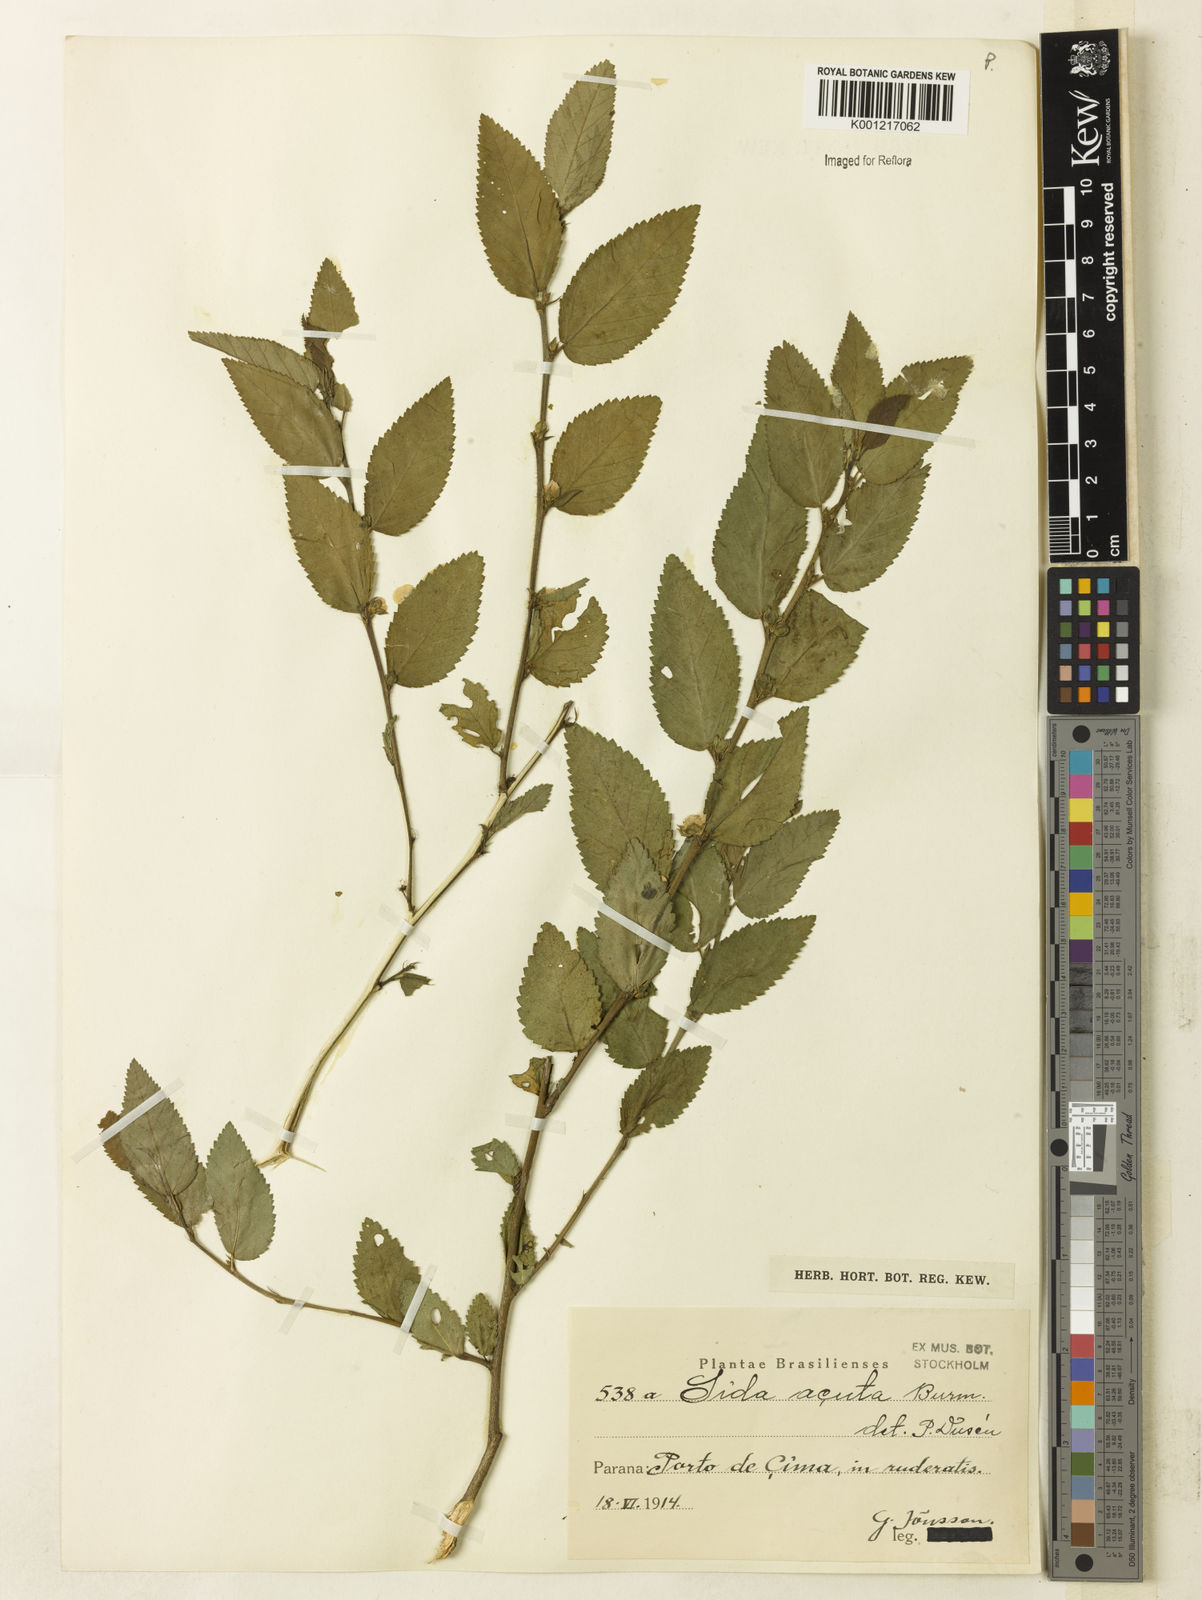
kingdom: Plantae
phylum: Tracheophyta
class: Magnoliopsida
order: Malvales
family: Malvaceae
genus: Sida
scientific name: Sida planicaulis
